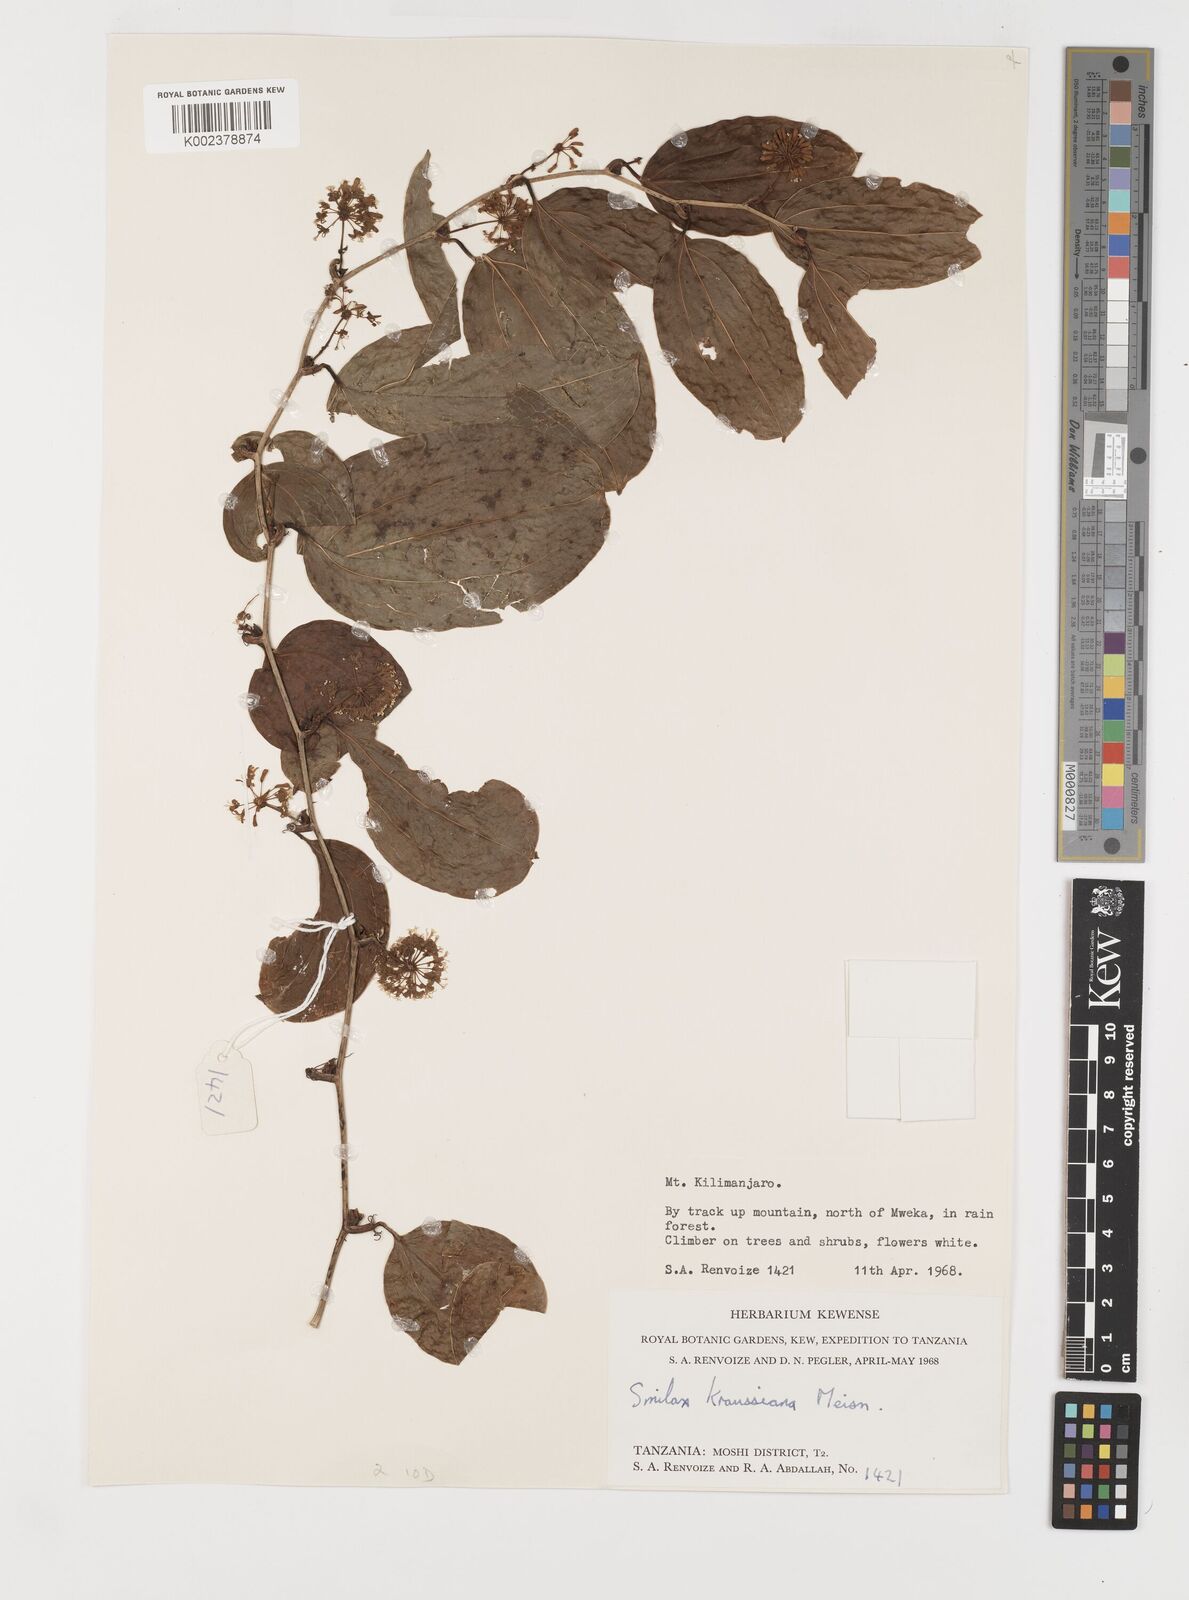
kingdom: Plantae
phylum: Tracheophyta
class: Liliopsida
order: Liliales
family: Smilacaceae
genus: Smilax
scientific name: Smilax anceps
